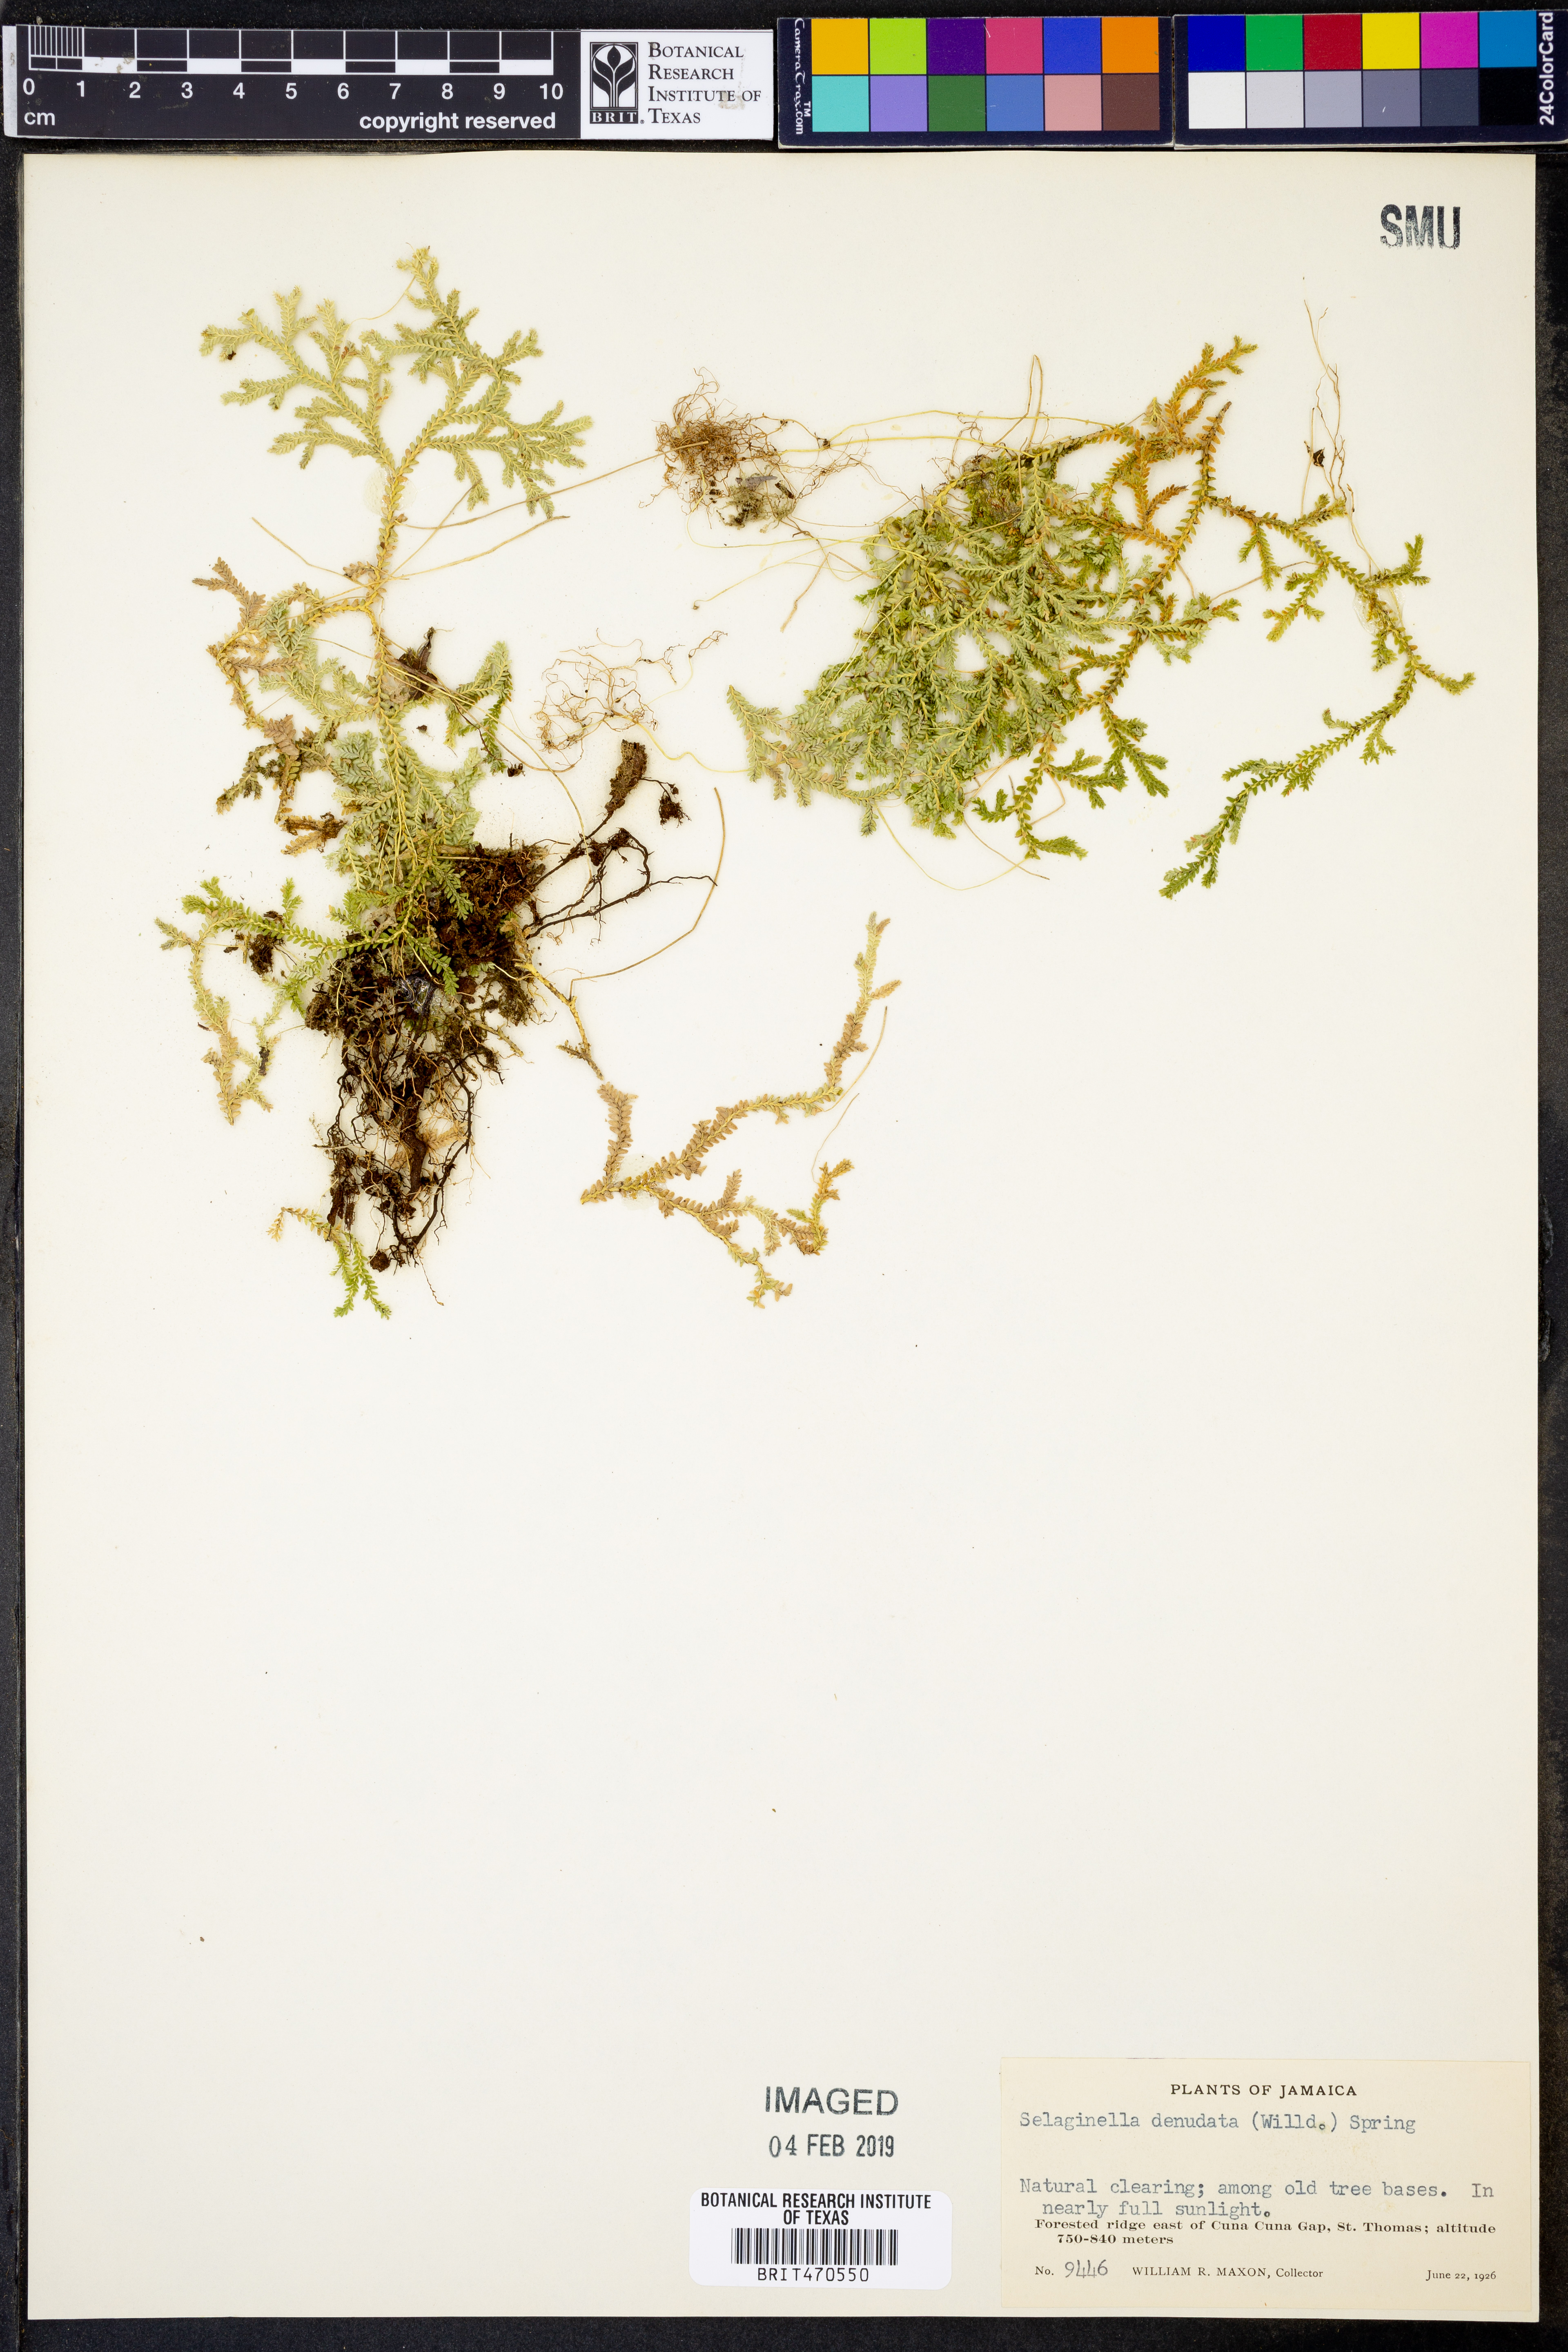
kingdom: Plantae
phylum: Tracheophyta
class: Lycopodiopsida
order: Selaginellales
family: Selaginellaceae
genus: Selaginella
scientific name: Selaginella denudata
